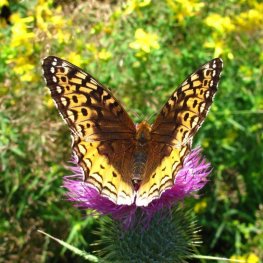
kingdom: Animalia
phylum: Arthropoda
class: Insecta
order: Lepidoptera
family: Nymphalidae
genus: Speyeria
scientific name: Speyeria cybele
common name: Great Spangled Fritillary
